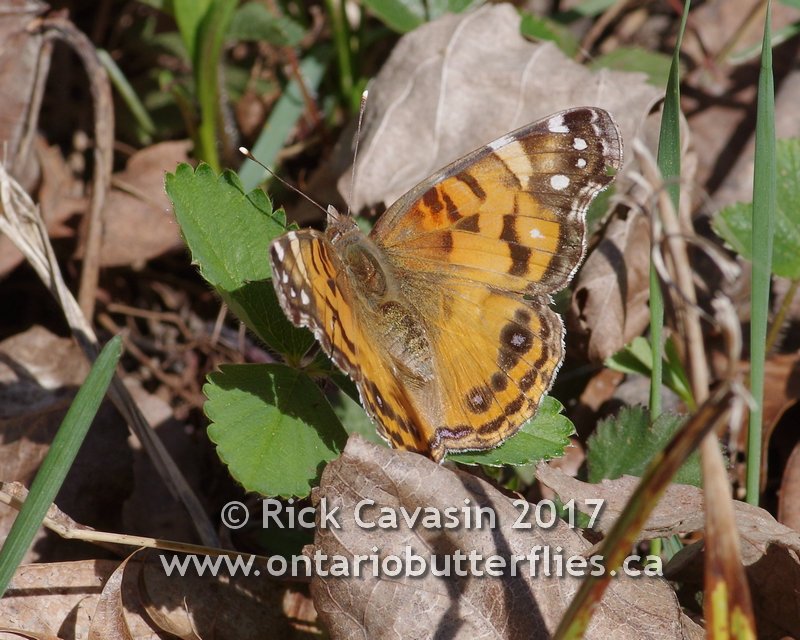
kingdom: Animalia
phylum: Arthropoda
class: Insecta
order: Lepidoptera
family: Nymphalidae
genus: Vanessa
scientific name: Vanessa virginiensis
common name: American Lady
